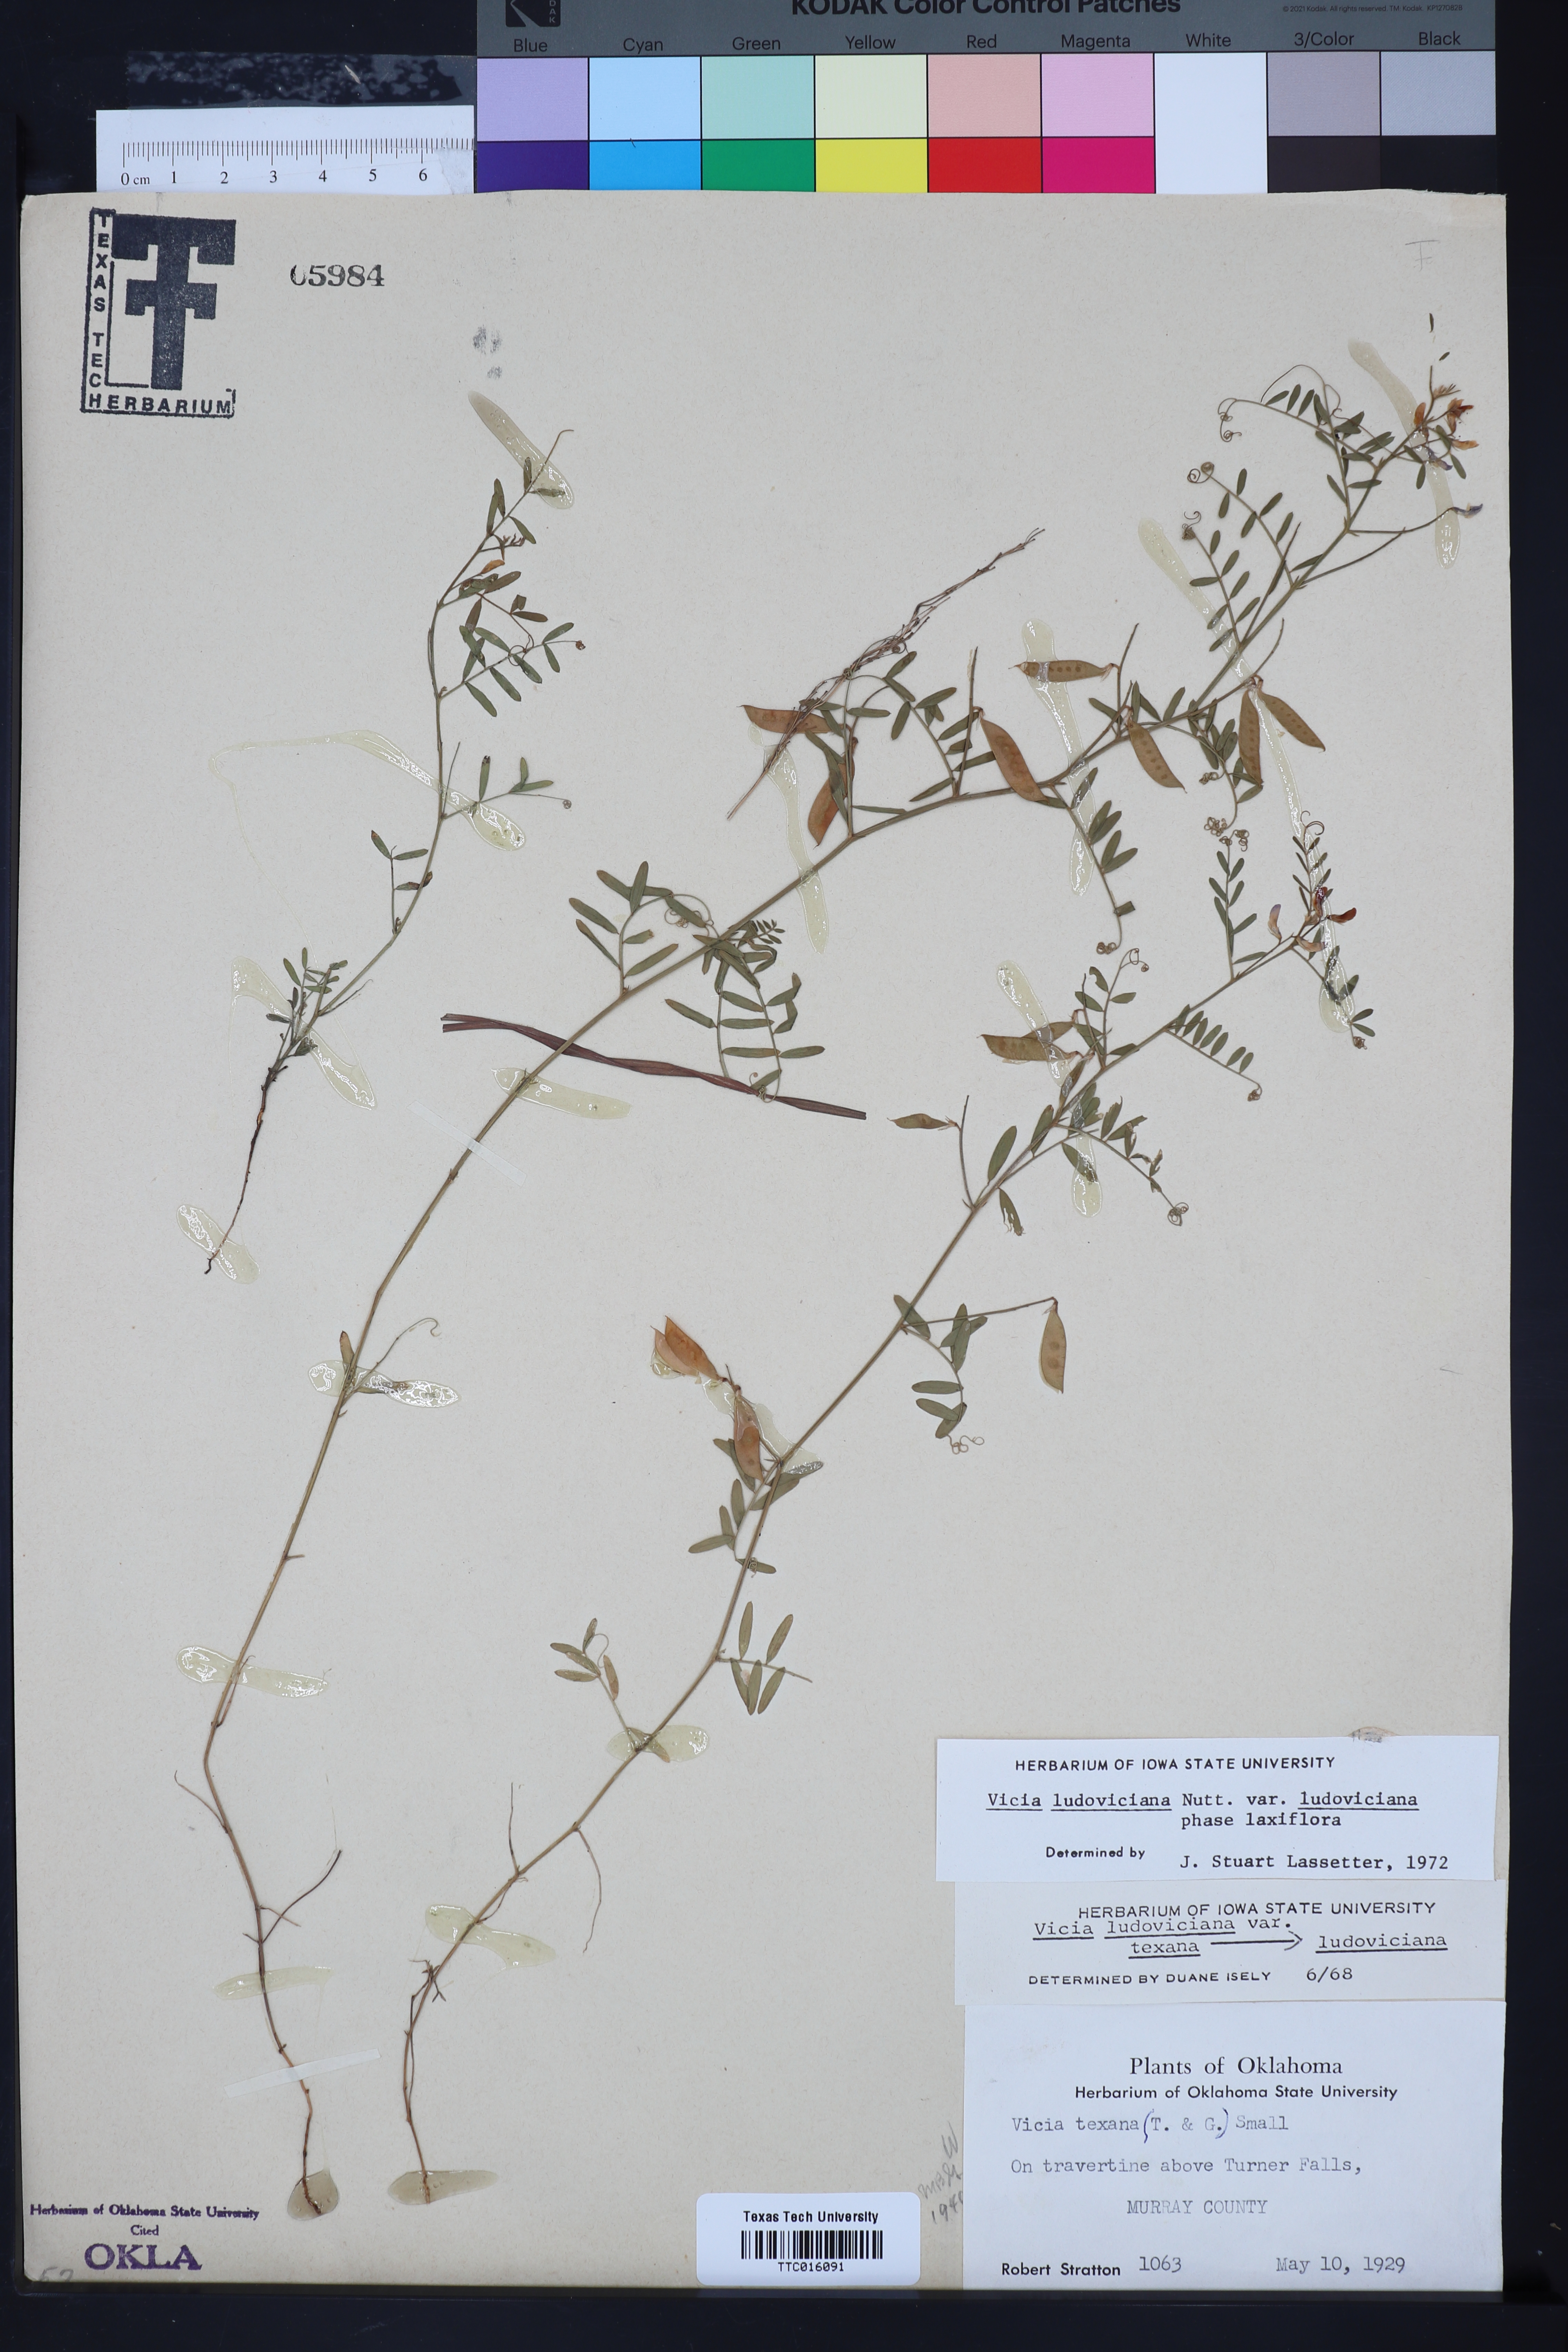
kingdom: Plantae
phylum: Tracheophyta
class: Magnoliopsida
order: Fabales
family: Fabaceae
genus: Vicia
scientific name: Vicia ludoviciana
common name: Louisiana vetch
